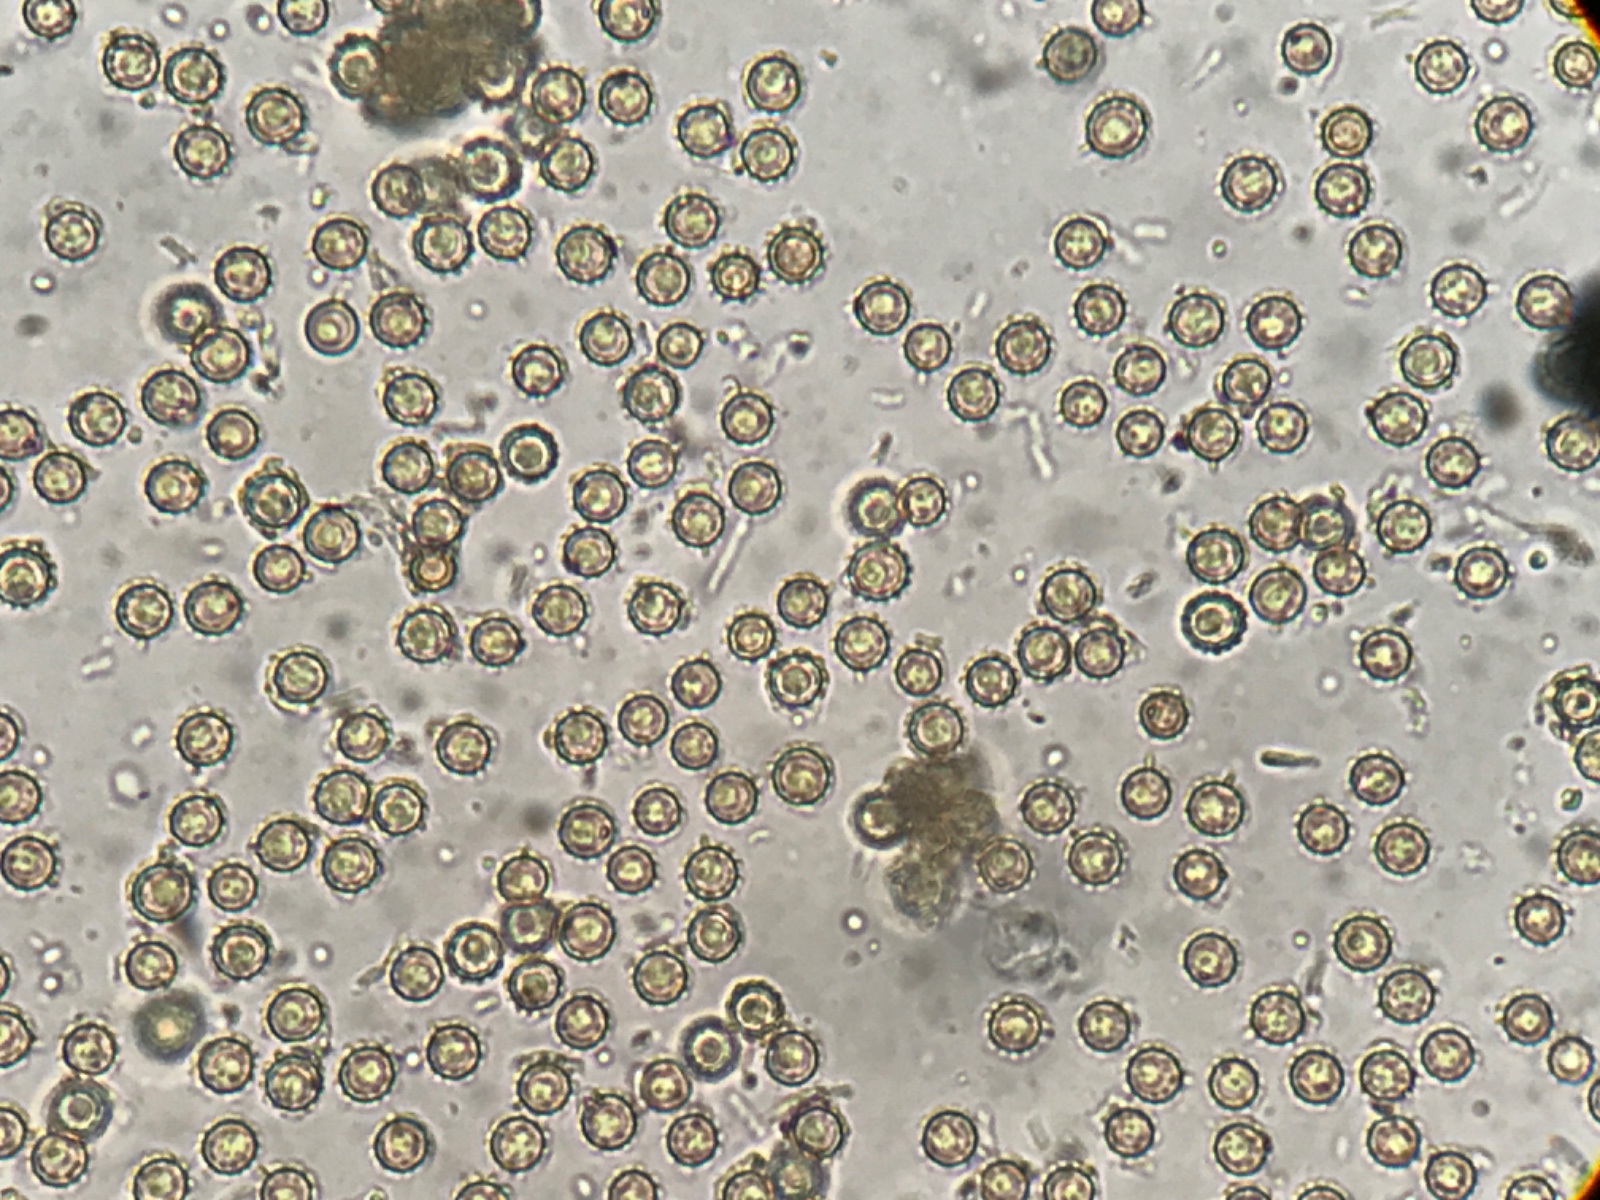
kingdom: Fungi
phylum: Basidiomycota
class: Agaricomycetes
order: Agaricales
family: Agaricaceae
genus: Lycoperdon
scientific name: Lycoperdon
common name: støvbold
